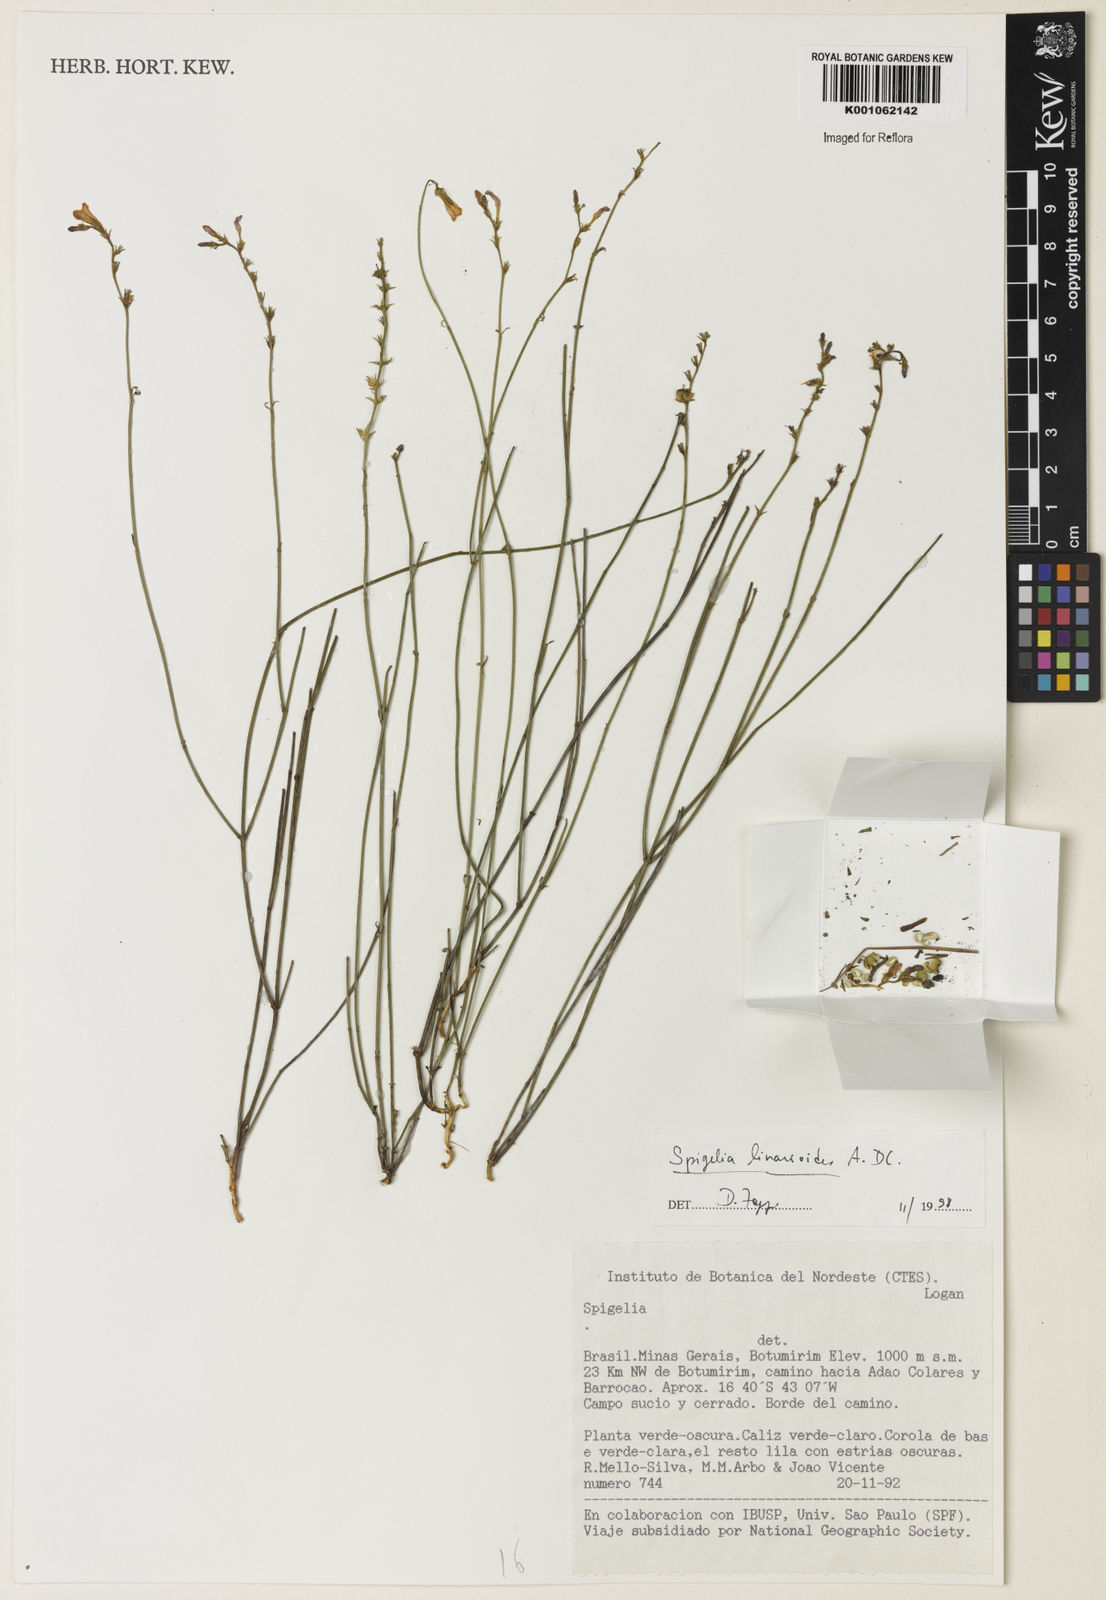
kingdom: Plantae
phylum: Tracheophyta
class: Magnoliopsida
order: Gentianales
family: Loganiaceae
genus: Spigelia
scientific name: Spigelia linarioides
